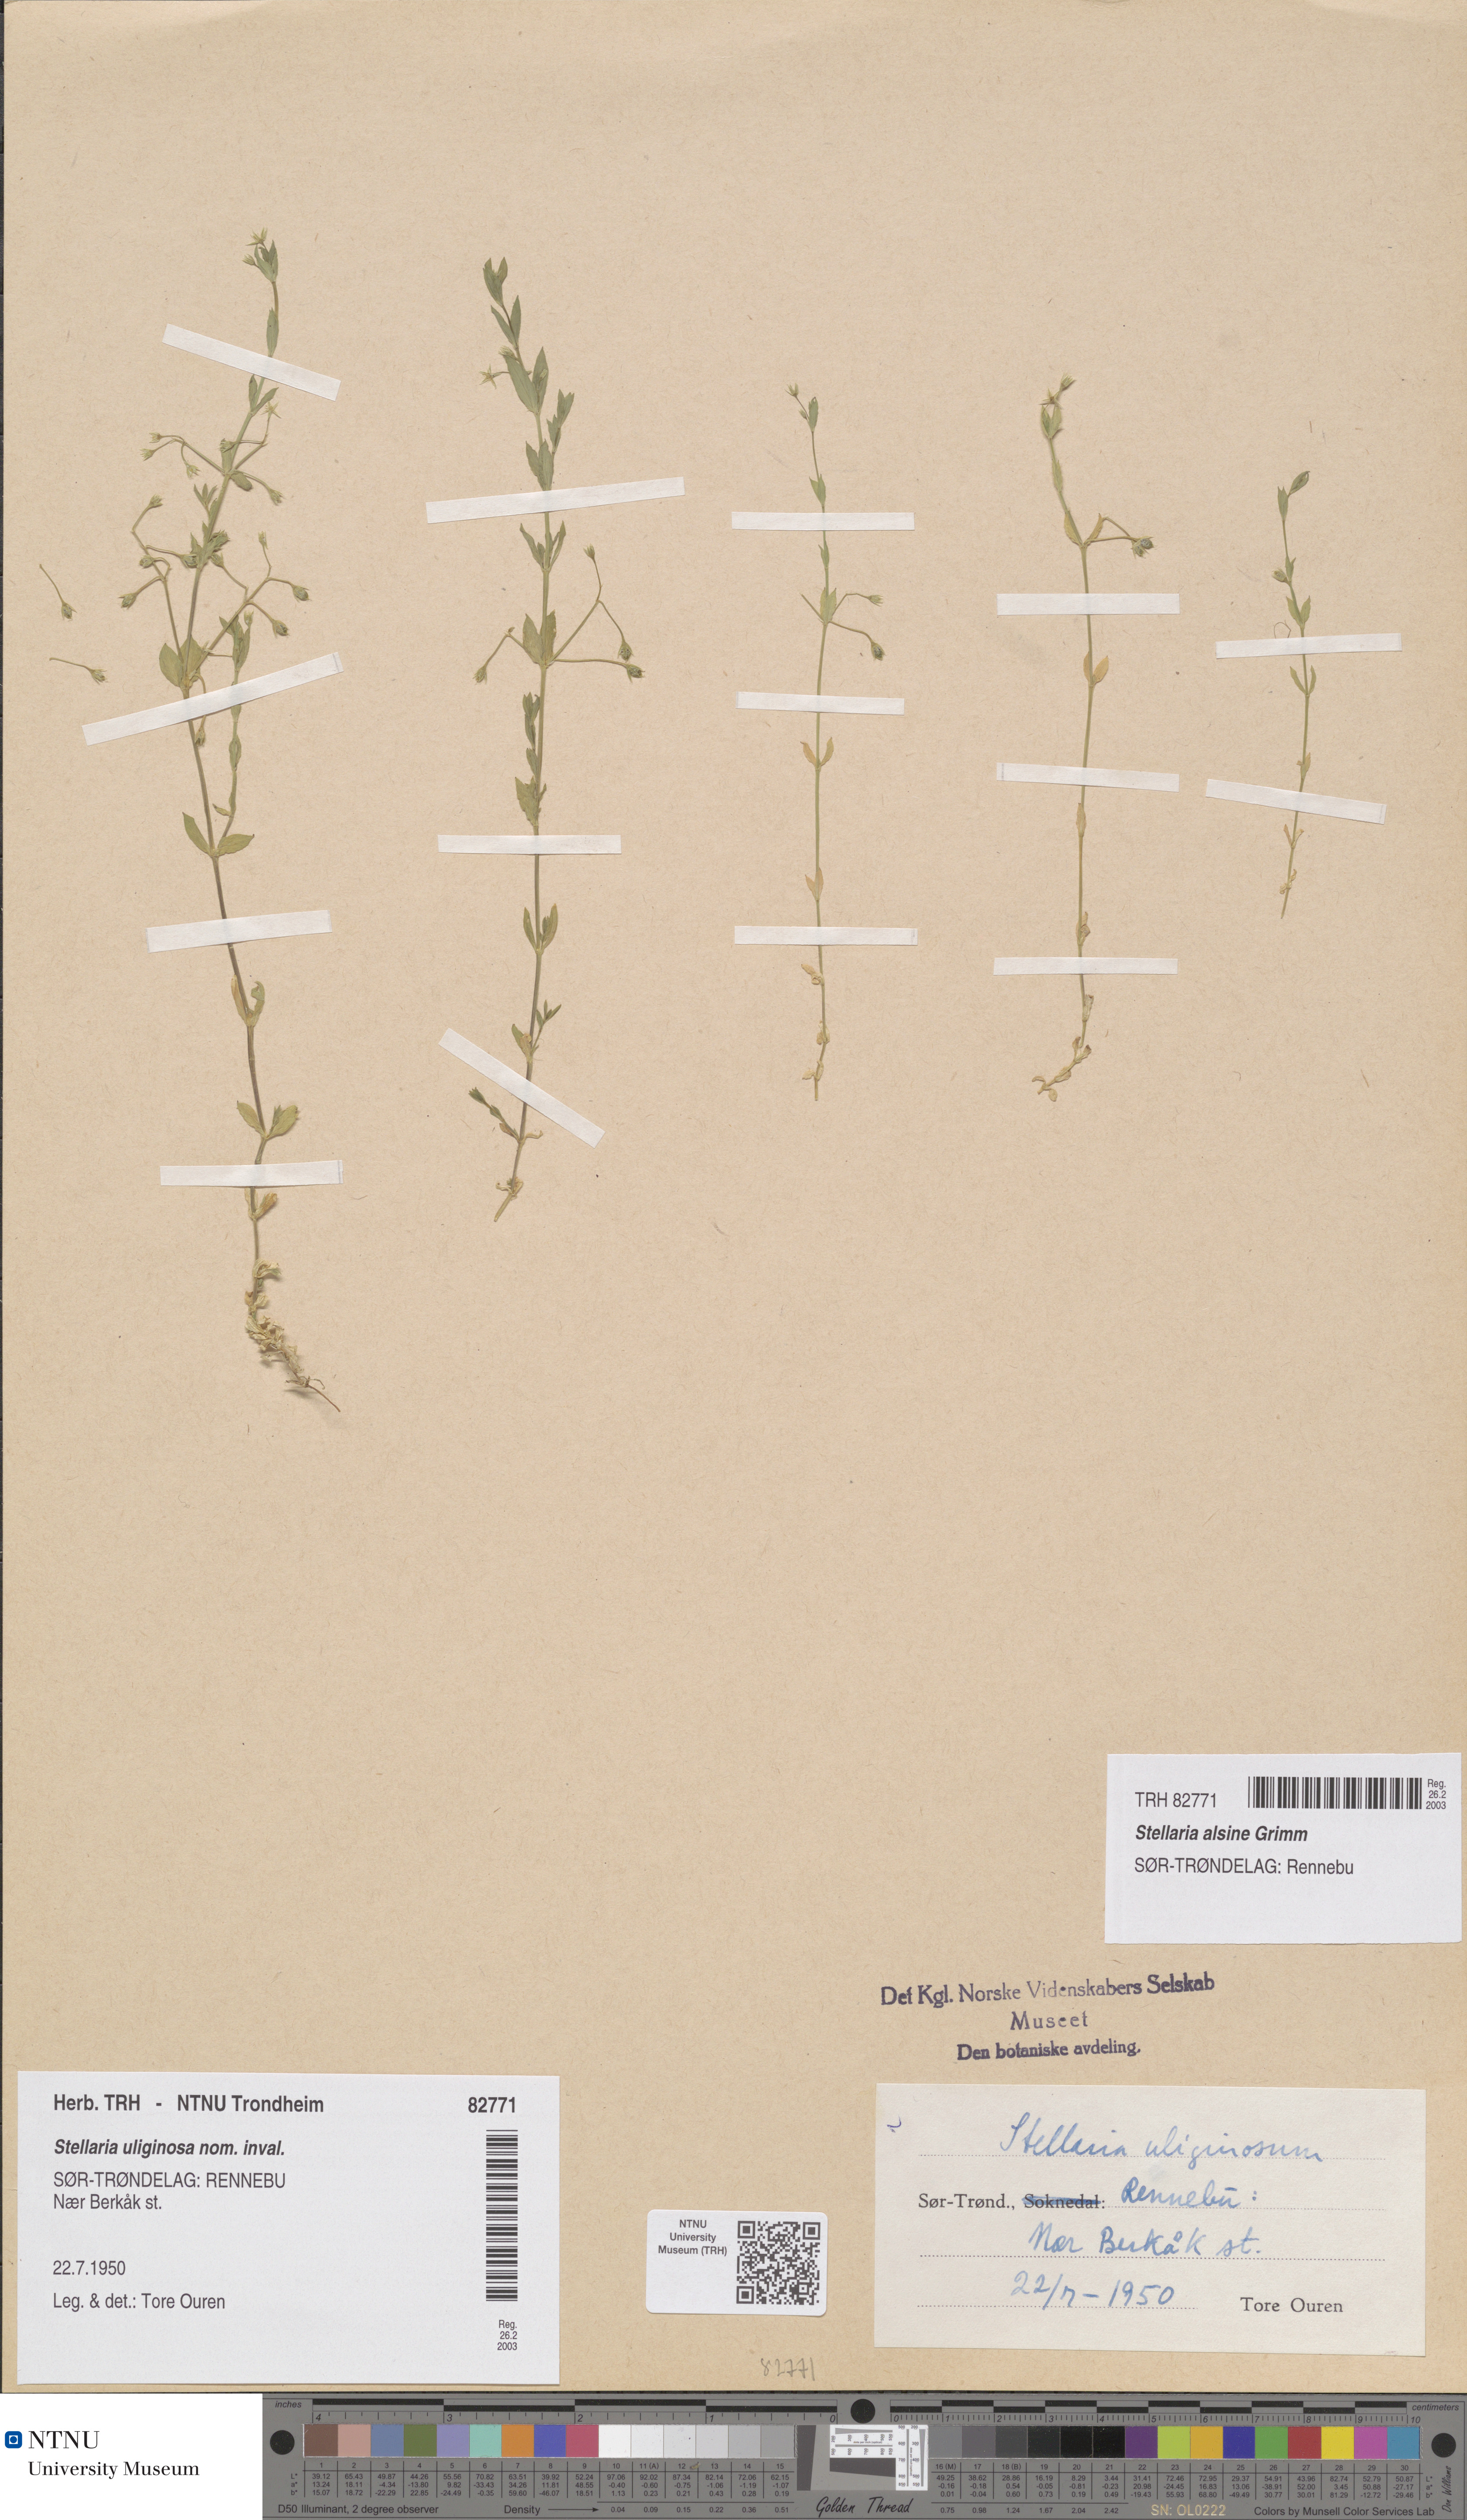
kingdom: Plantae
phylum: Tracheophyta
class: Magnoliopsida
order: Caryophyllales
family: Caryophyllaceae
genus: Stellaria
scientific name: Stellaria alsine
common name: Bog stitchwort
